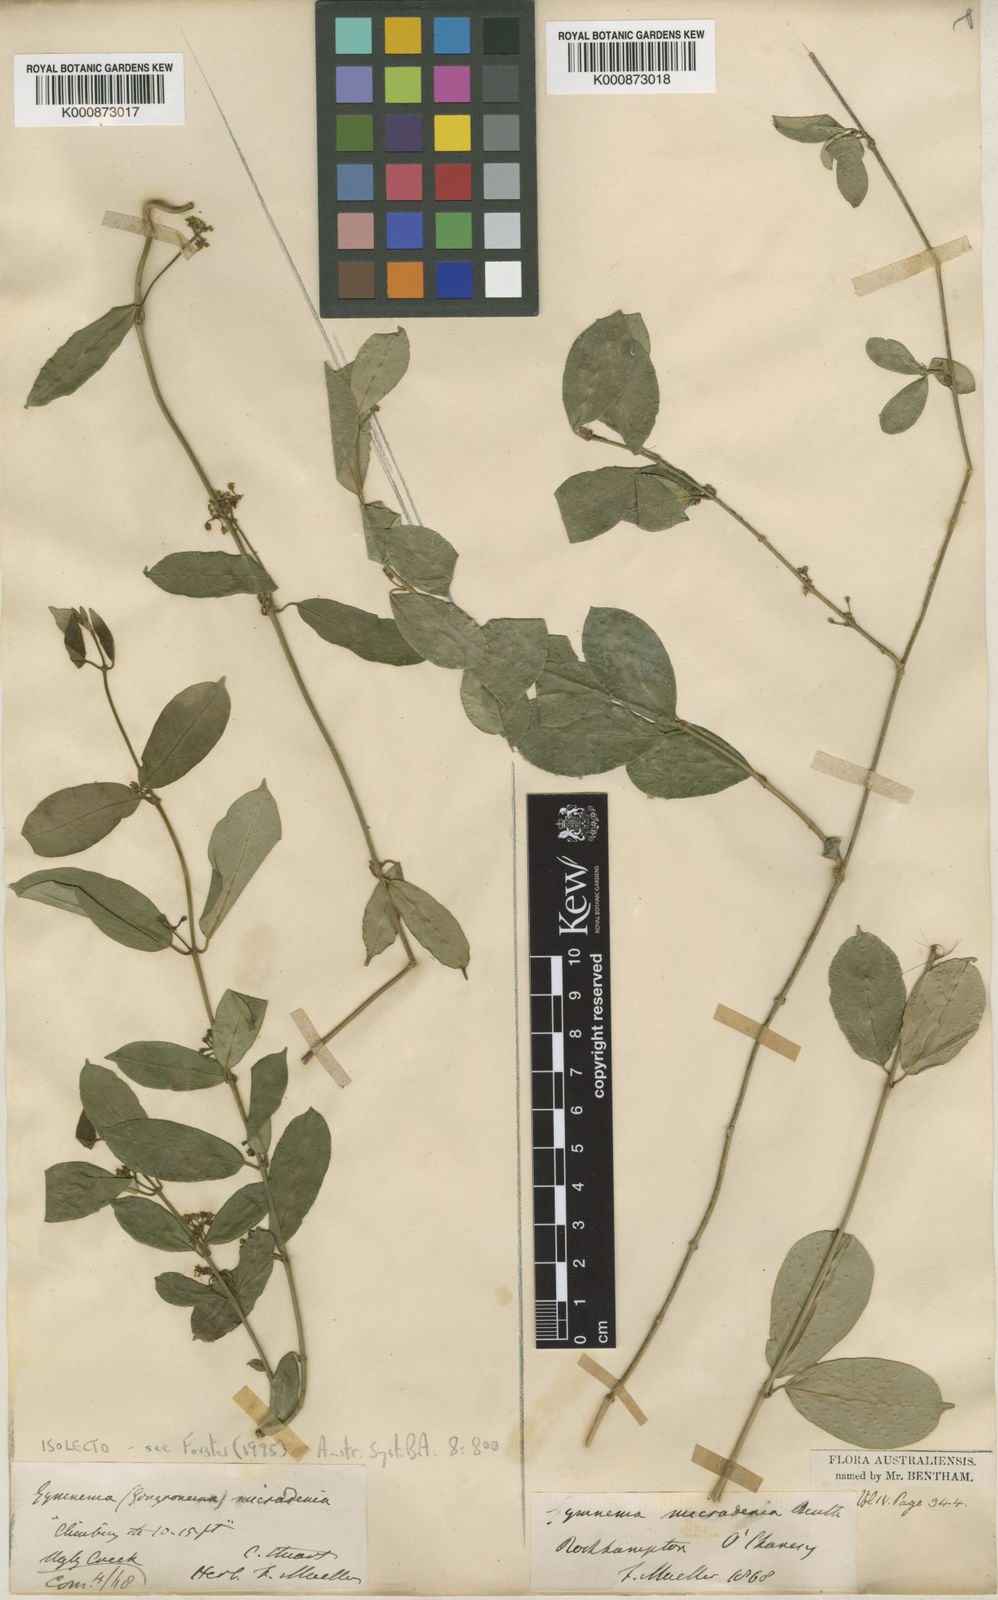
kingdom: Plantae
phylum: Tracheophyta
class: Magnoliopsida
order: Gentianales
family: Apocynaceae
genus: Leichhardtia
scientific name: Leichhardtia micradenia
